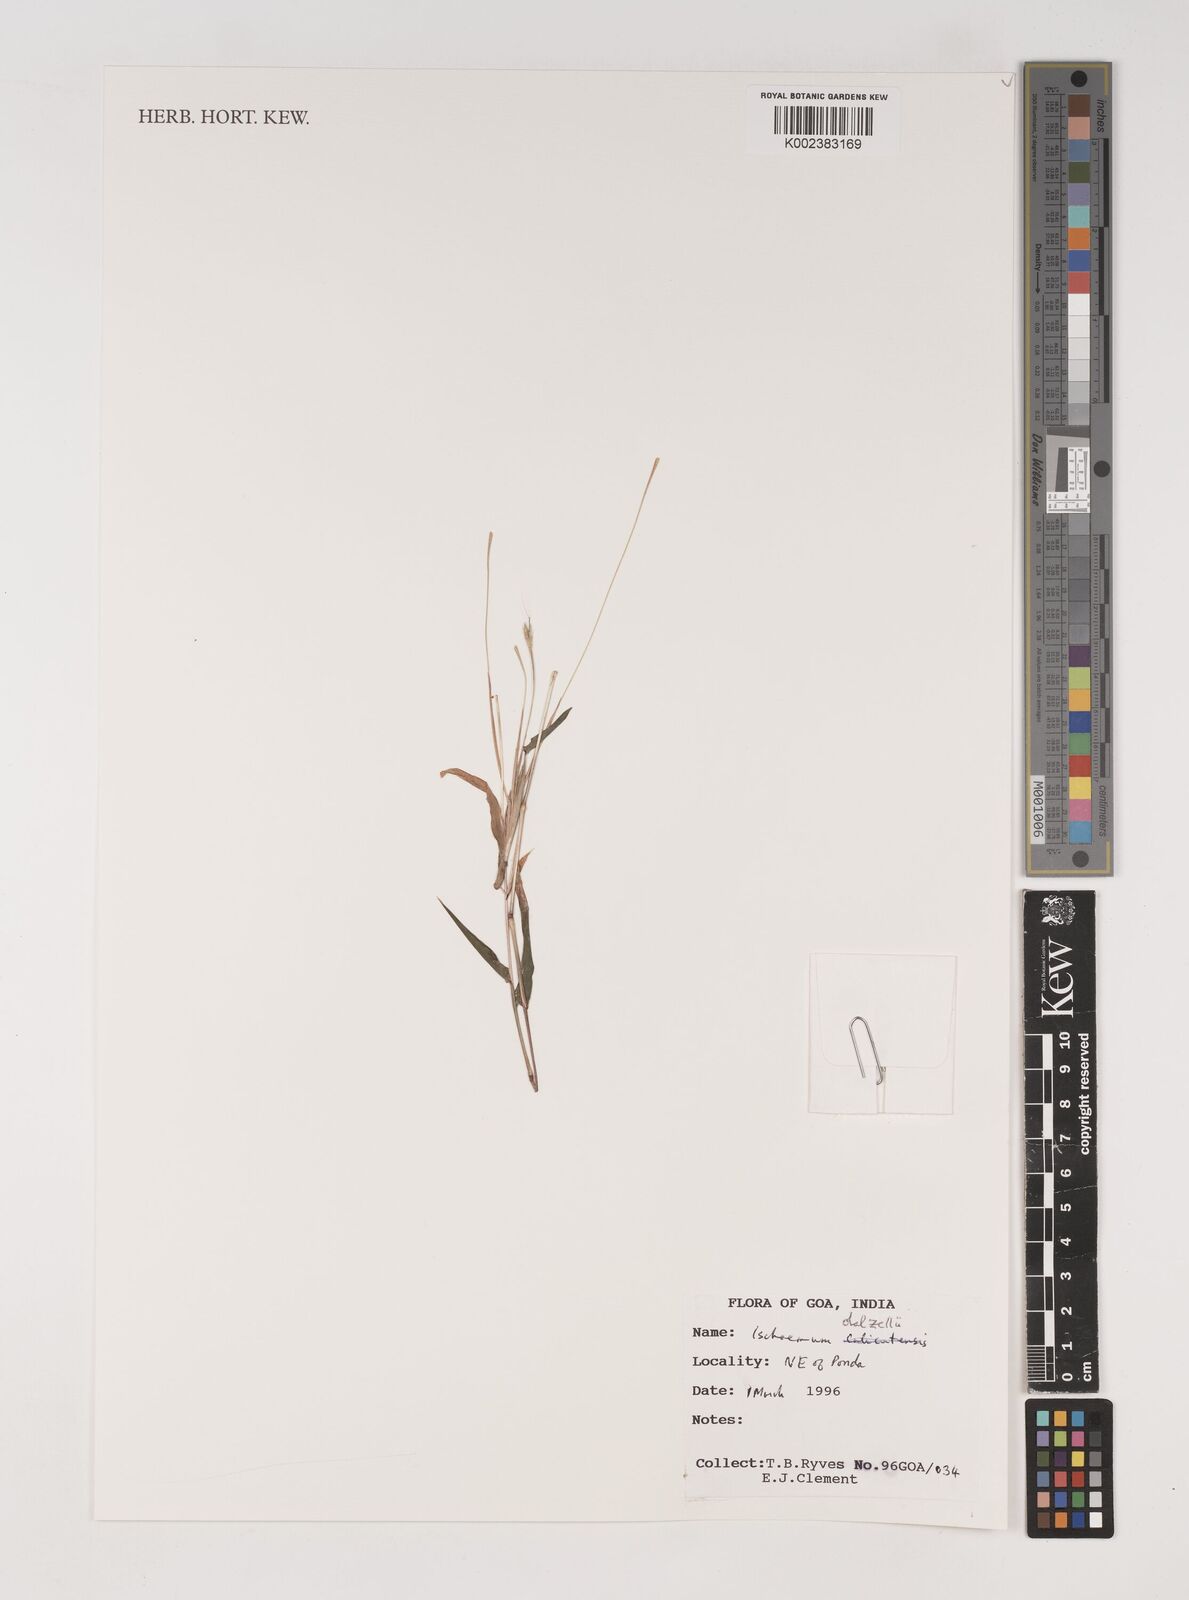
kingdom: Plantae
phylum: Tracheophyta
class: Liliopsida
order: Poales
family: Poaceae
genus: Ischaemum
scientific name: Ischaemum dalzellii
